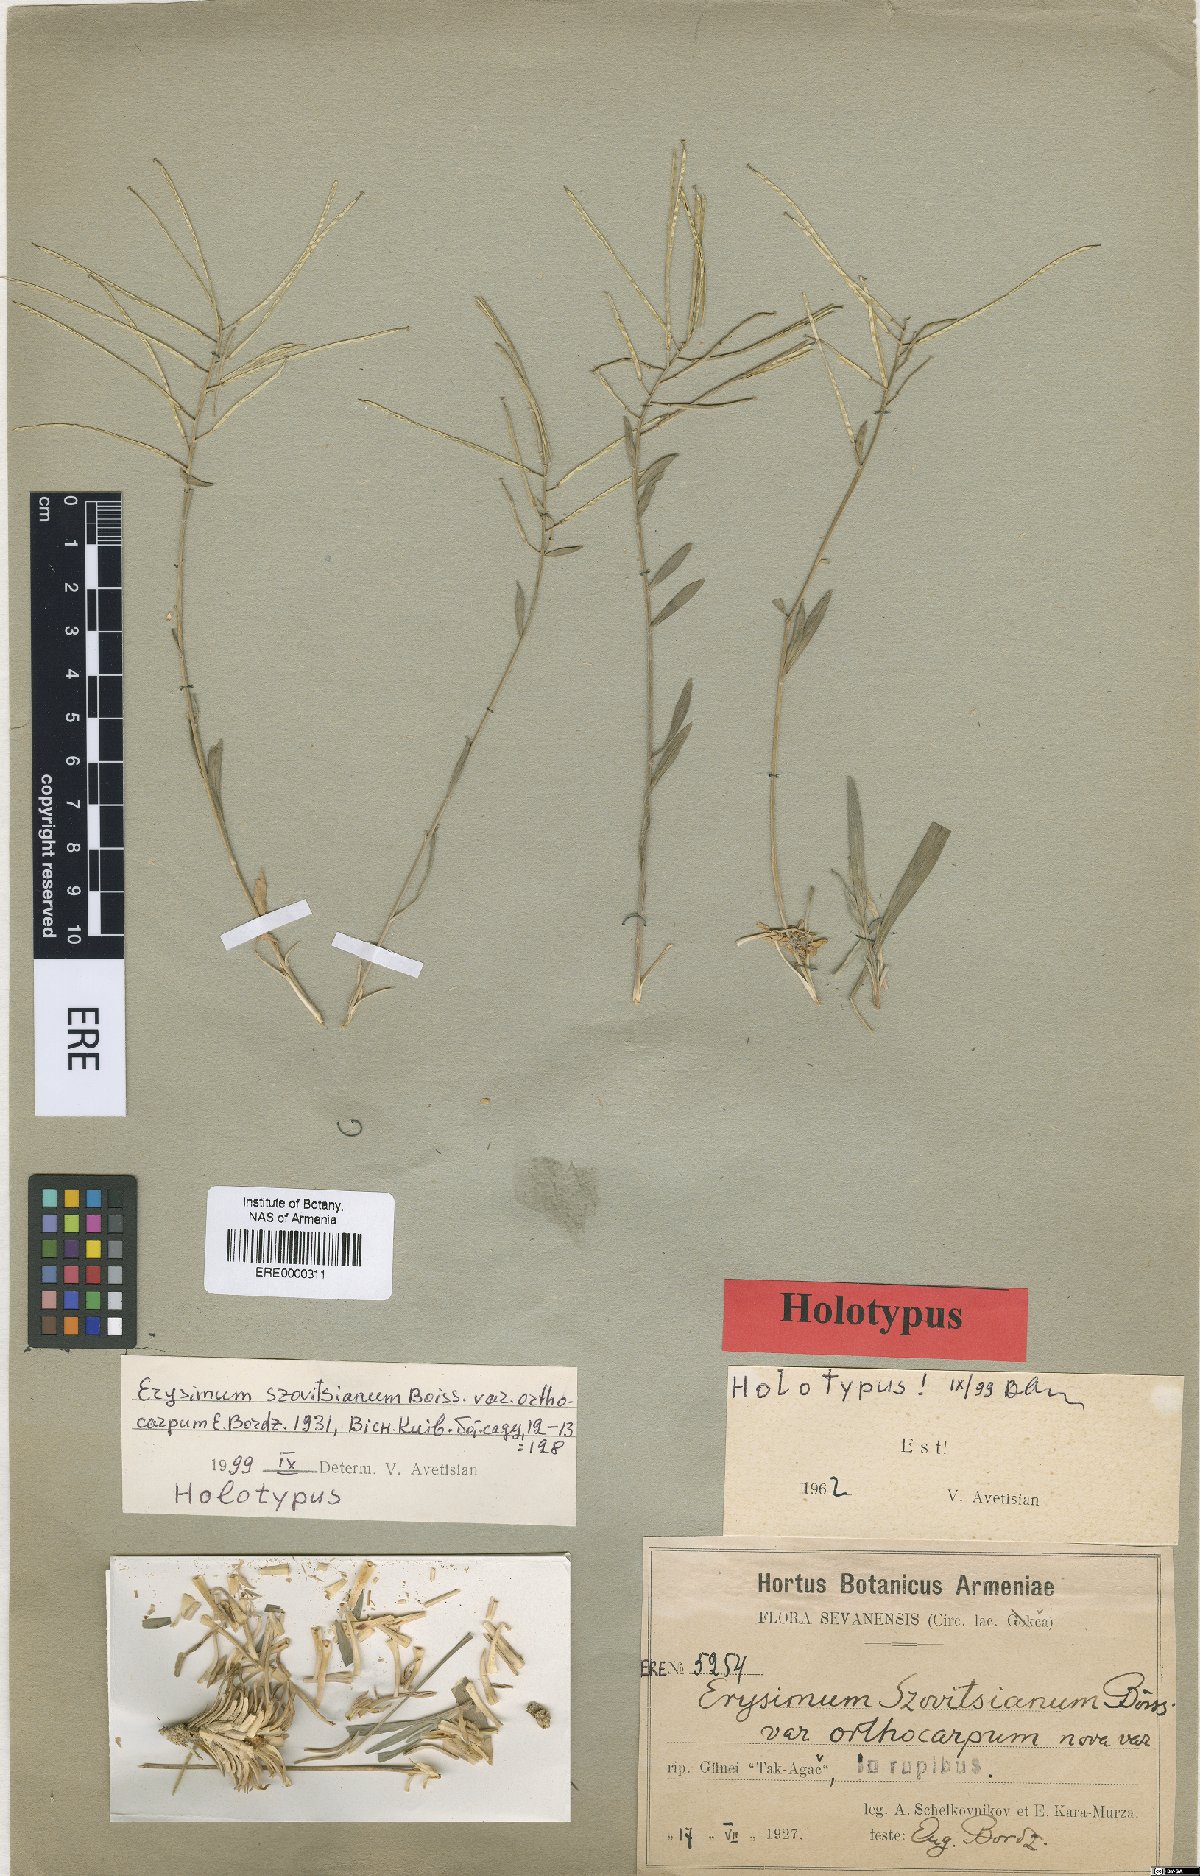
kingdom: Plantae
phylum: Tracheophyta
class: Magnoliopsida
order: Brassicales
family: Brassicaceae
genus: Erysimum
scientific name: Erysimum szowitsianum
